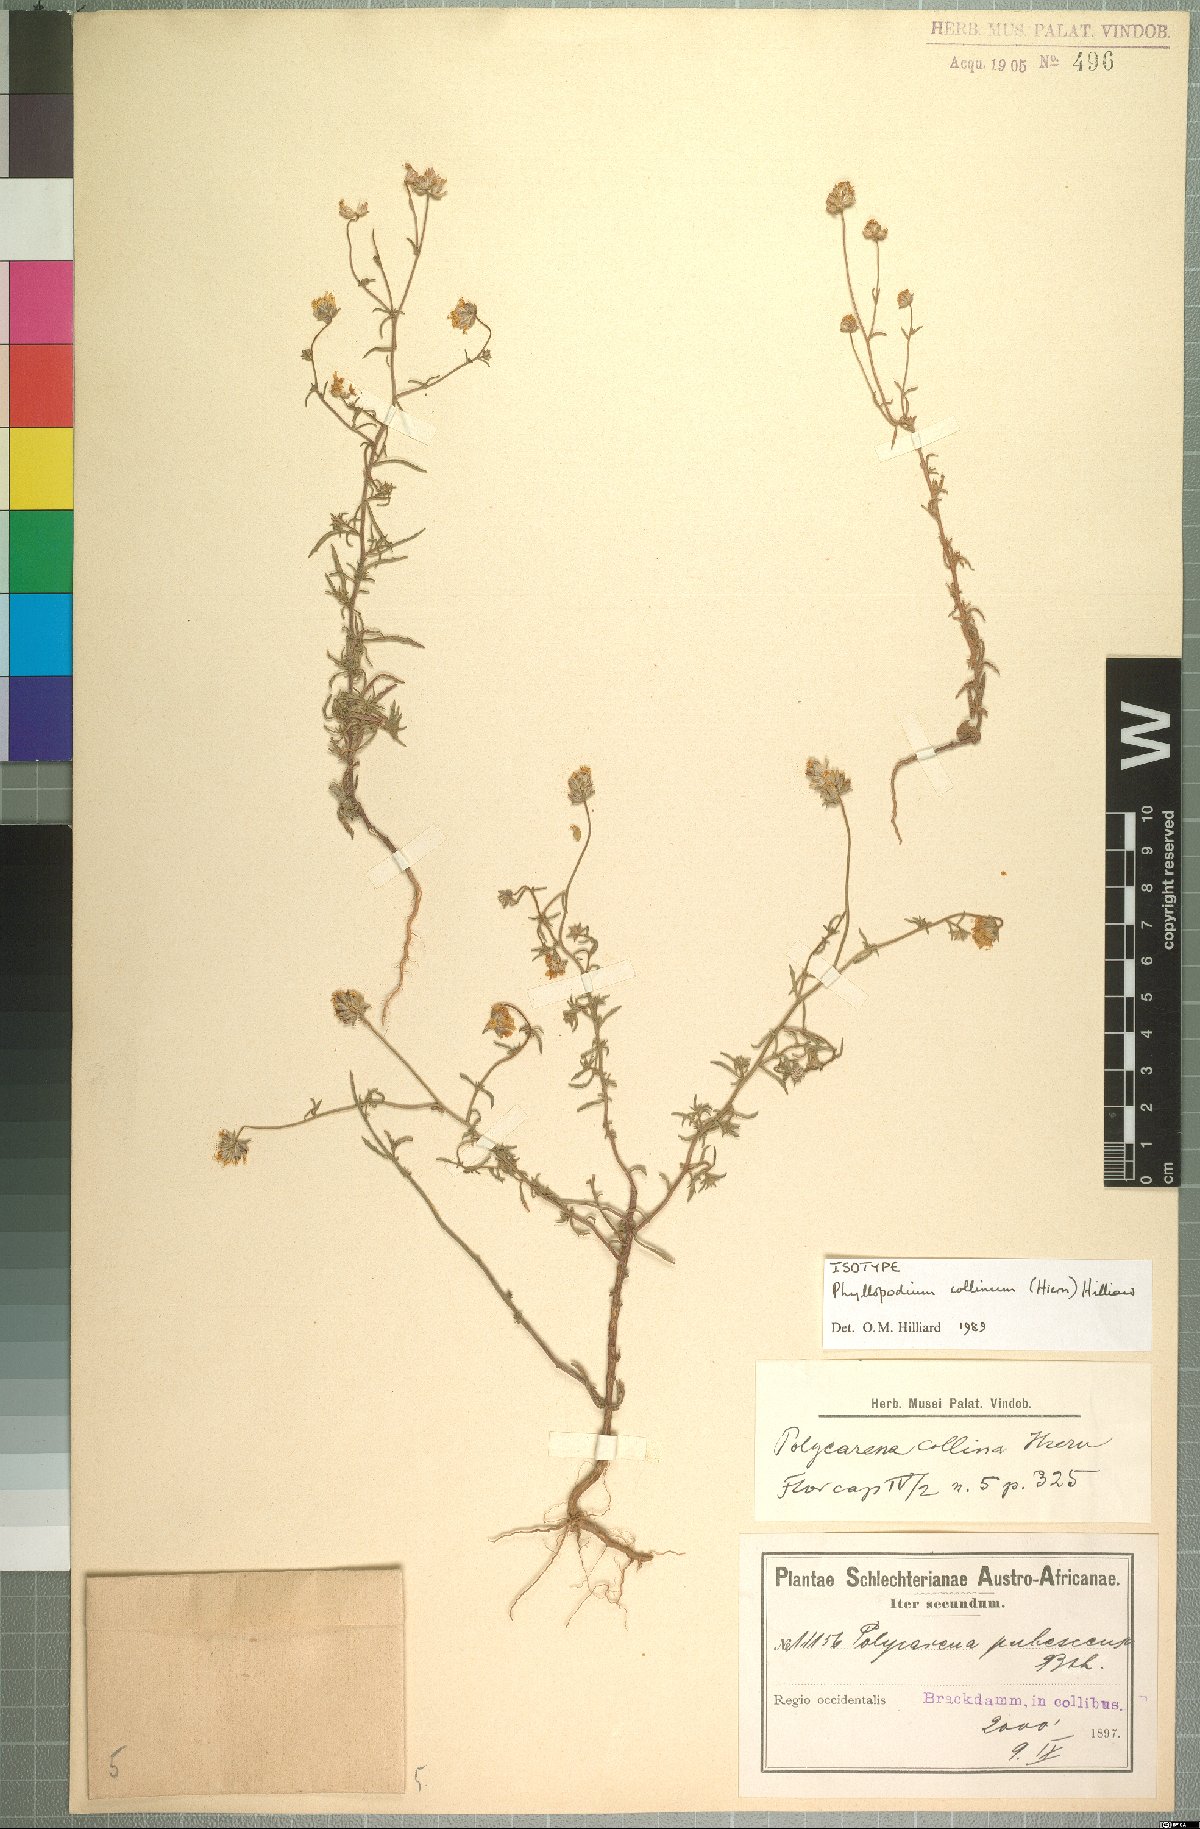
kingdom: Plantae
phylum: Tracheophyta
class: Magnoliopsida
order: Lamiales
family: Scrophulariaceae
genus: Phyllopodium
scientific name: Phyllopodium collinum
